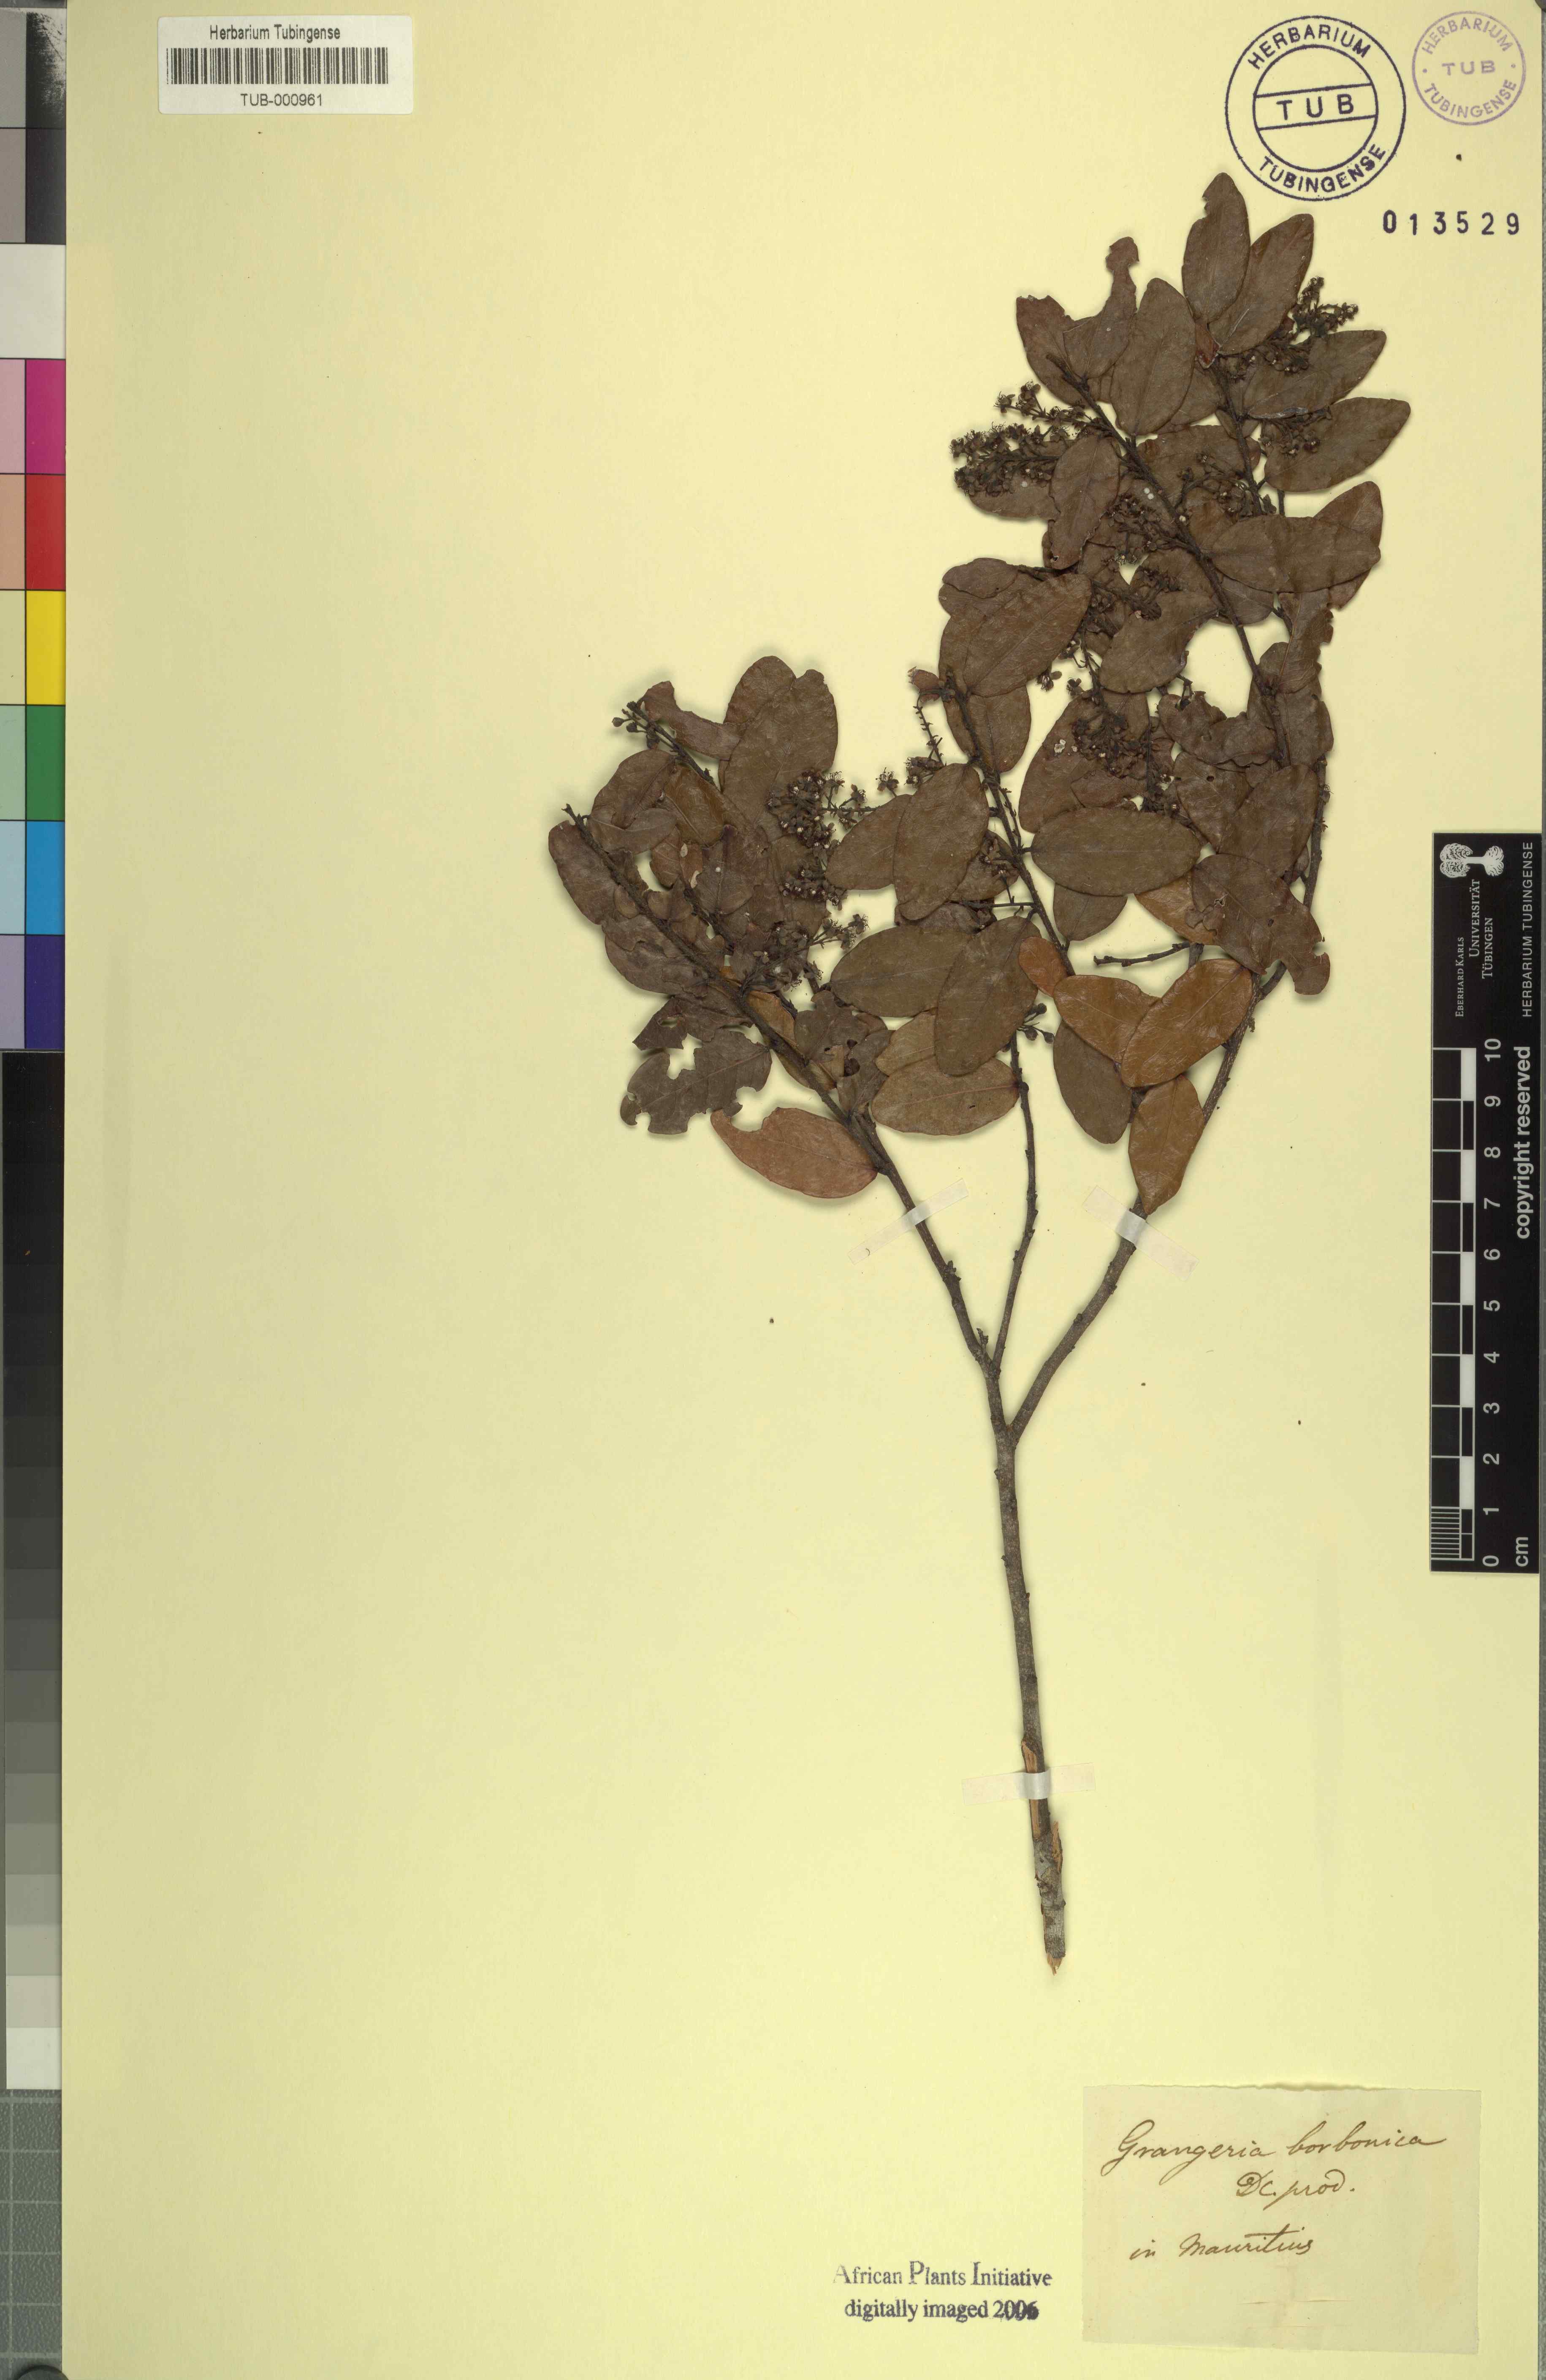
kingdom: Plantae
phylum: Tracheophyta
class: Magnoliopsida
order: Malpighiales
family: Chrysobalanaceae
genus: Grangeria
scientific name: Grangeria borbonica
